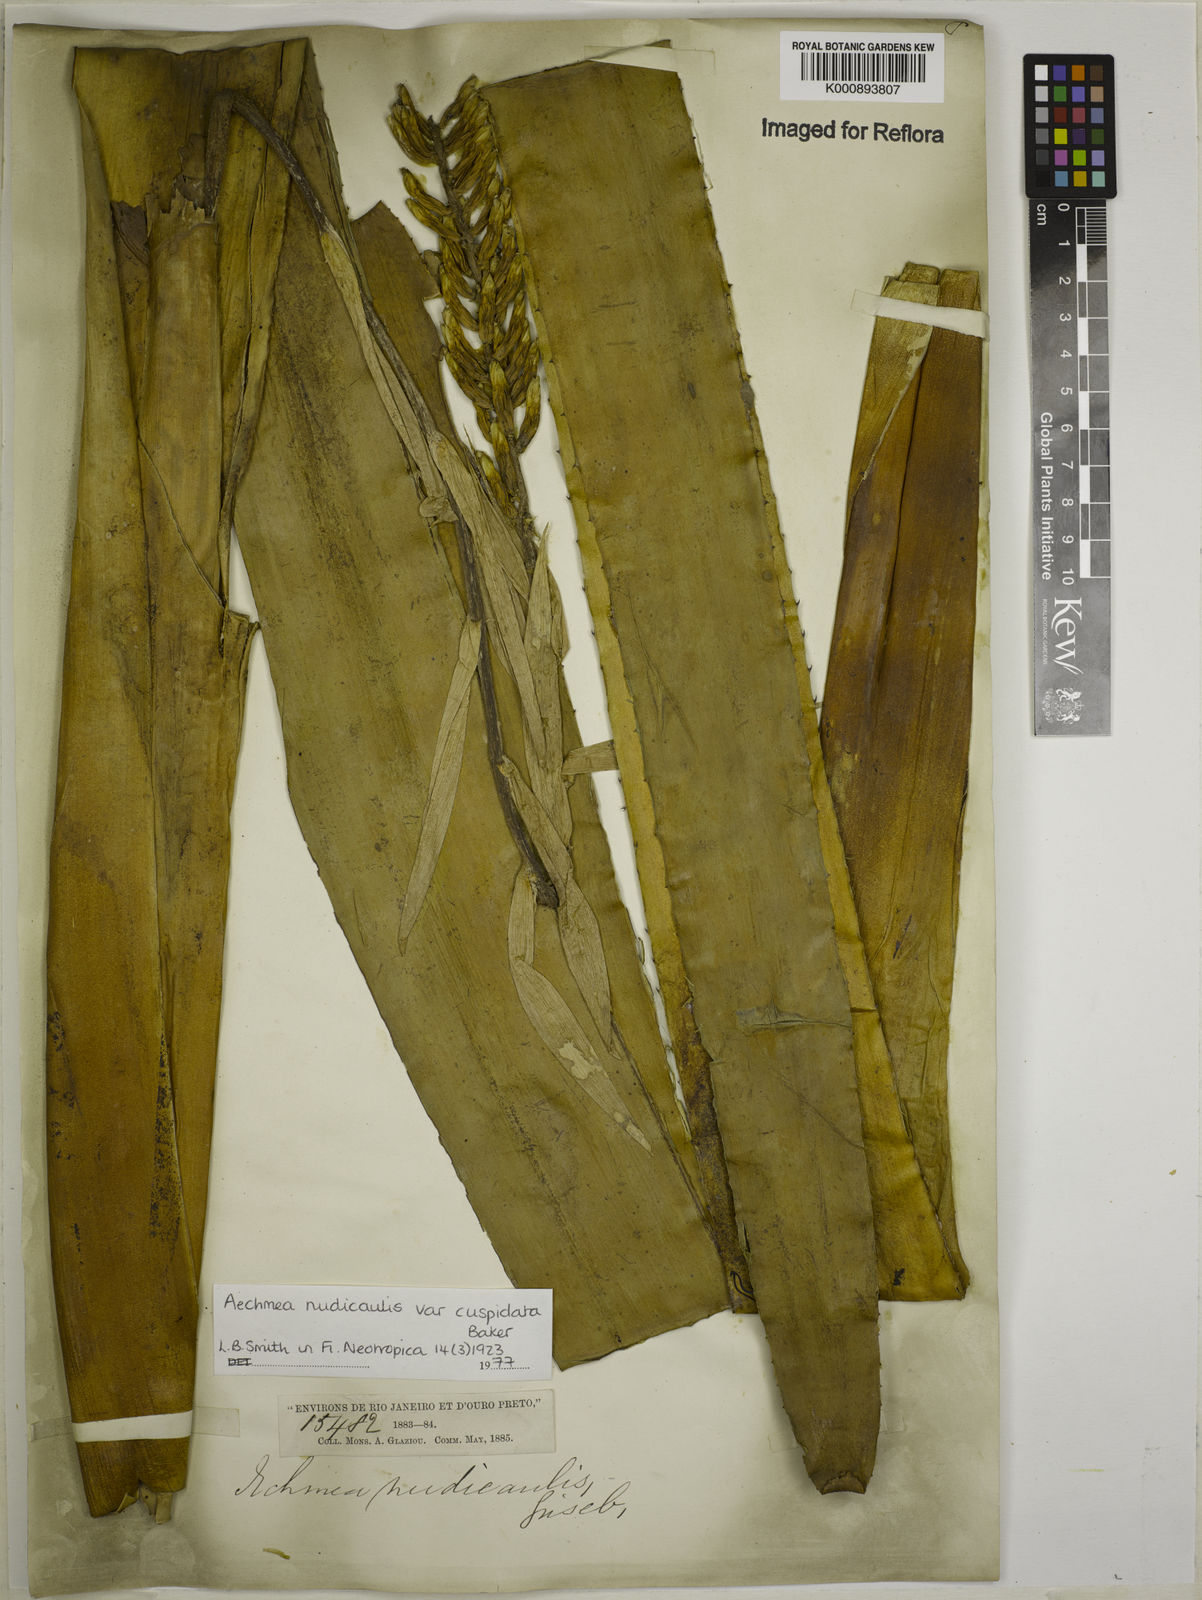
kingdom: Plantae
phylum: Tracheophyta
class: Liliopsida
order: Poales
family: Bromeliaceae
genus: Aechmea
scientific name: Aechmea nudicaulis
